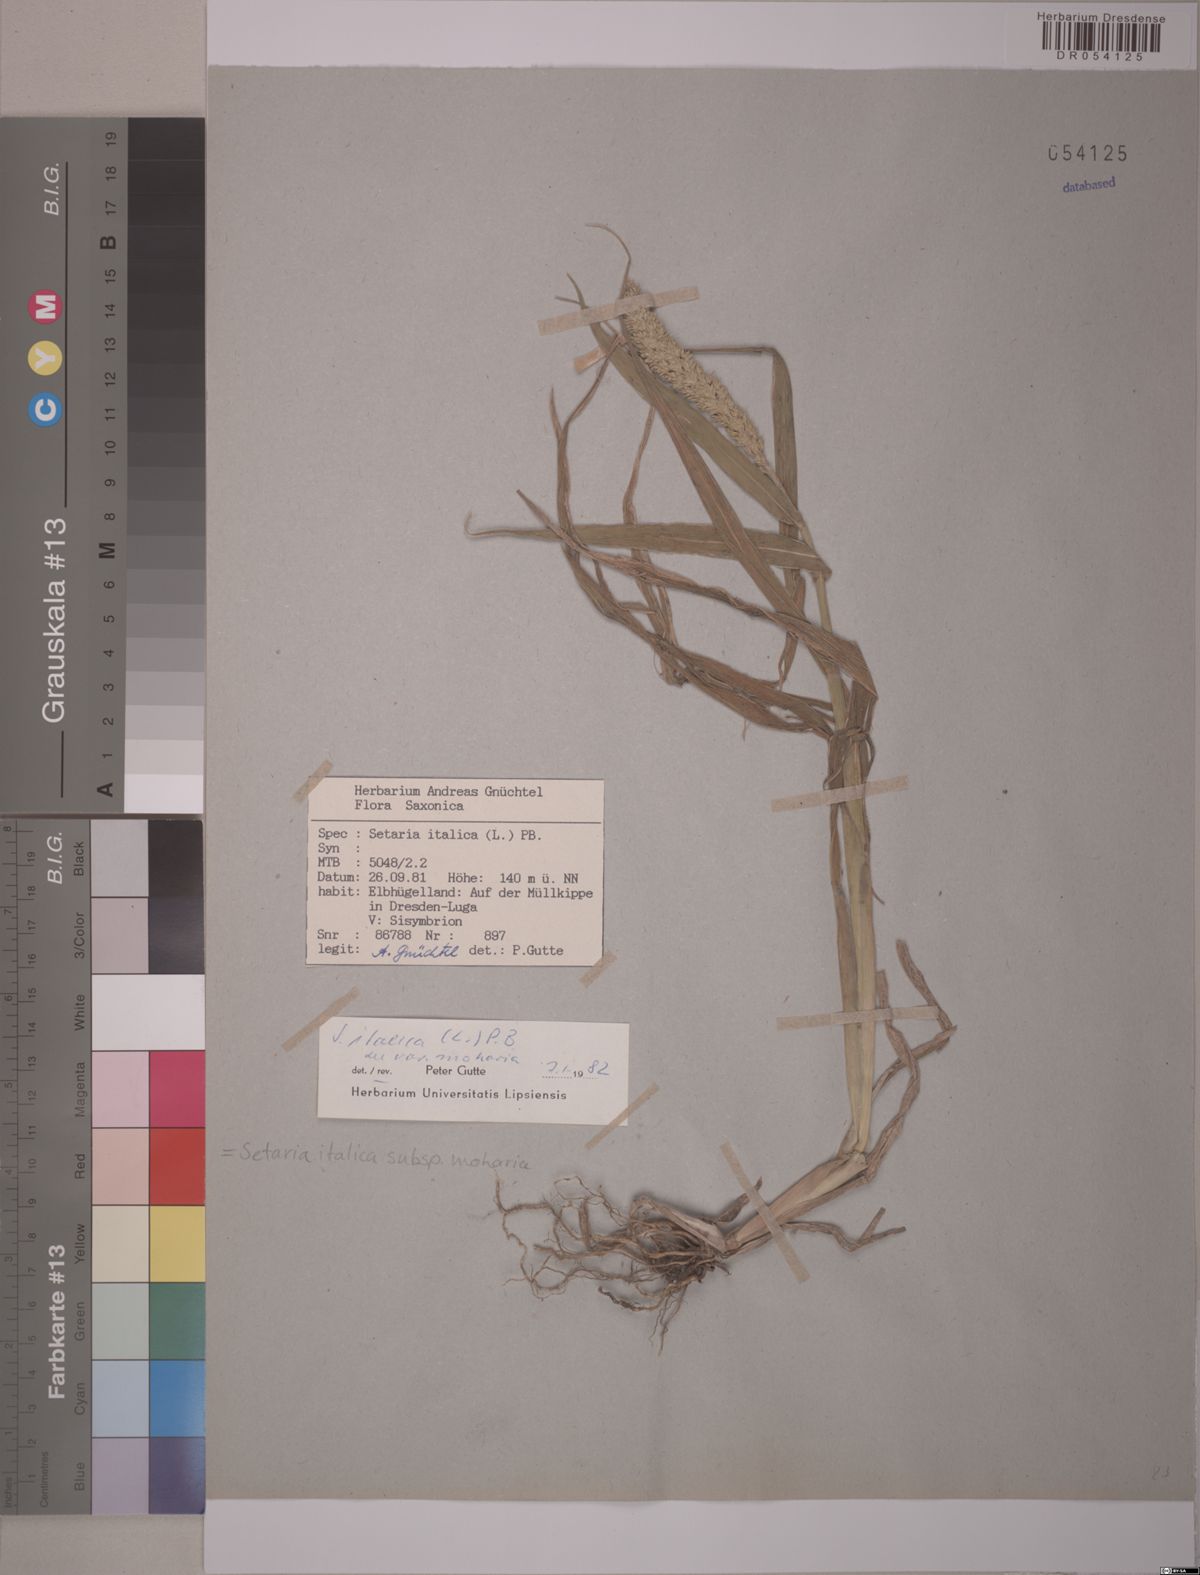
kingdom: Plantae
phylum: Tracheophyta
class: Liliopsida
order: Poales
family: Poaceae
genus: Setaria
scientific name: Setaria italica
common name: Foxtail bristle-grass
